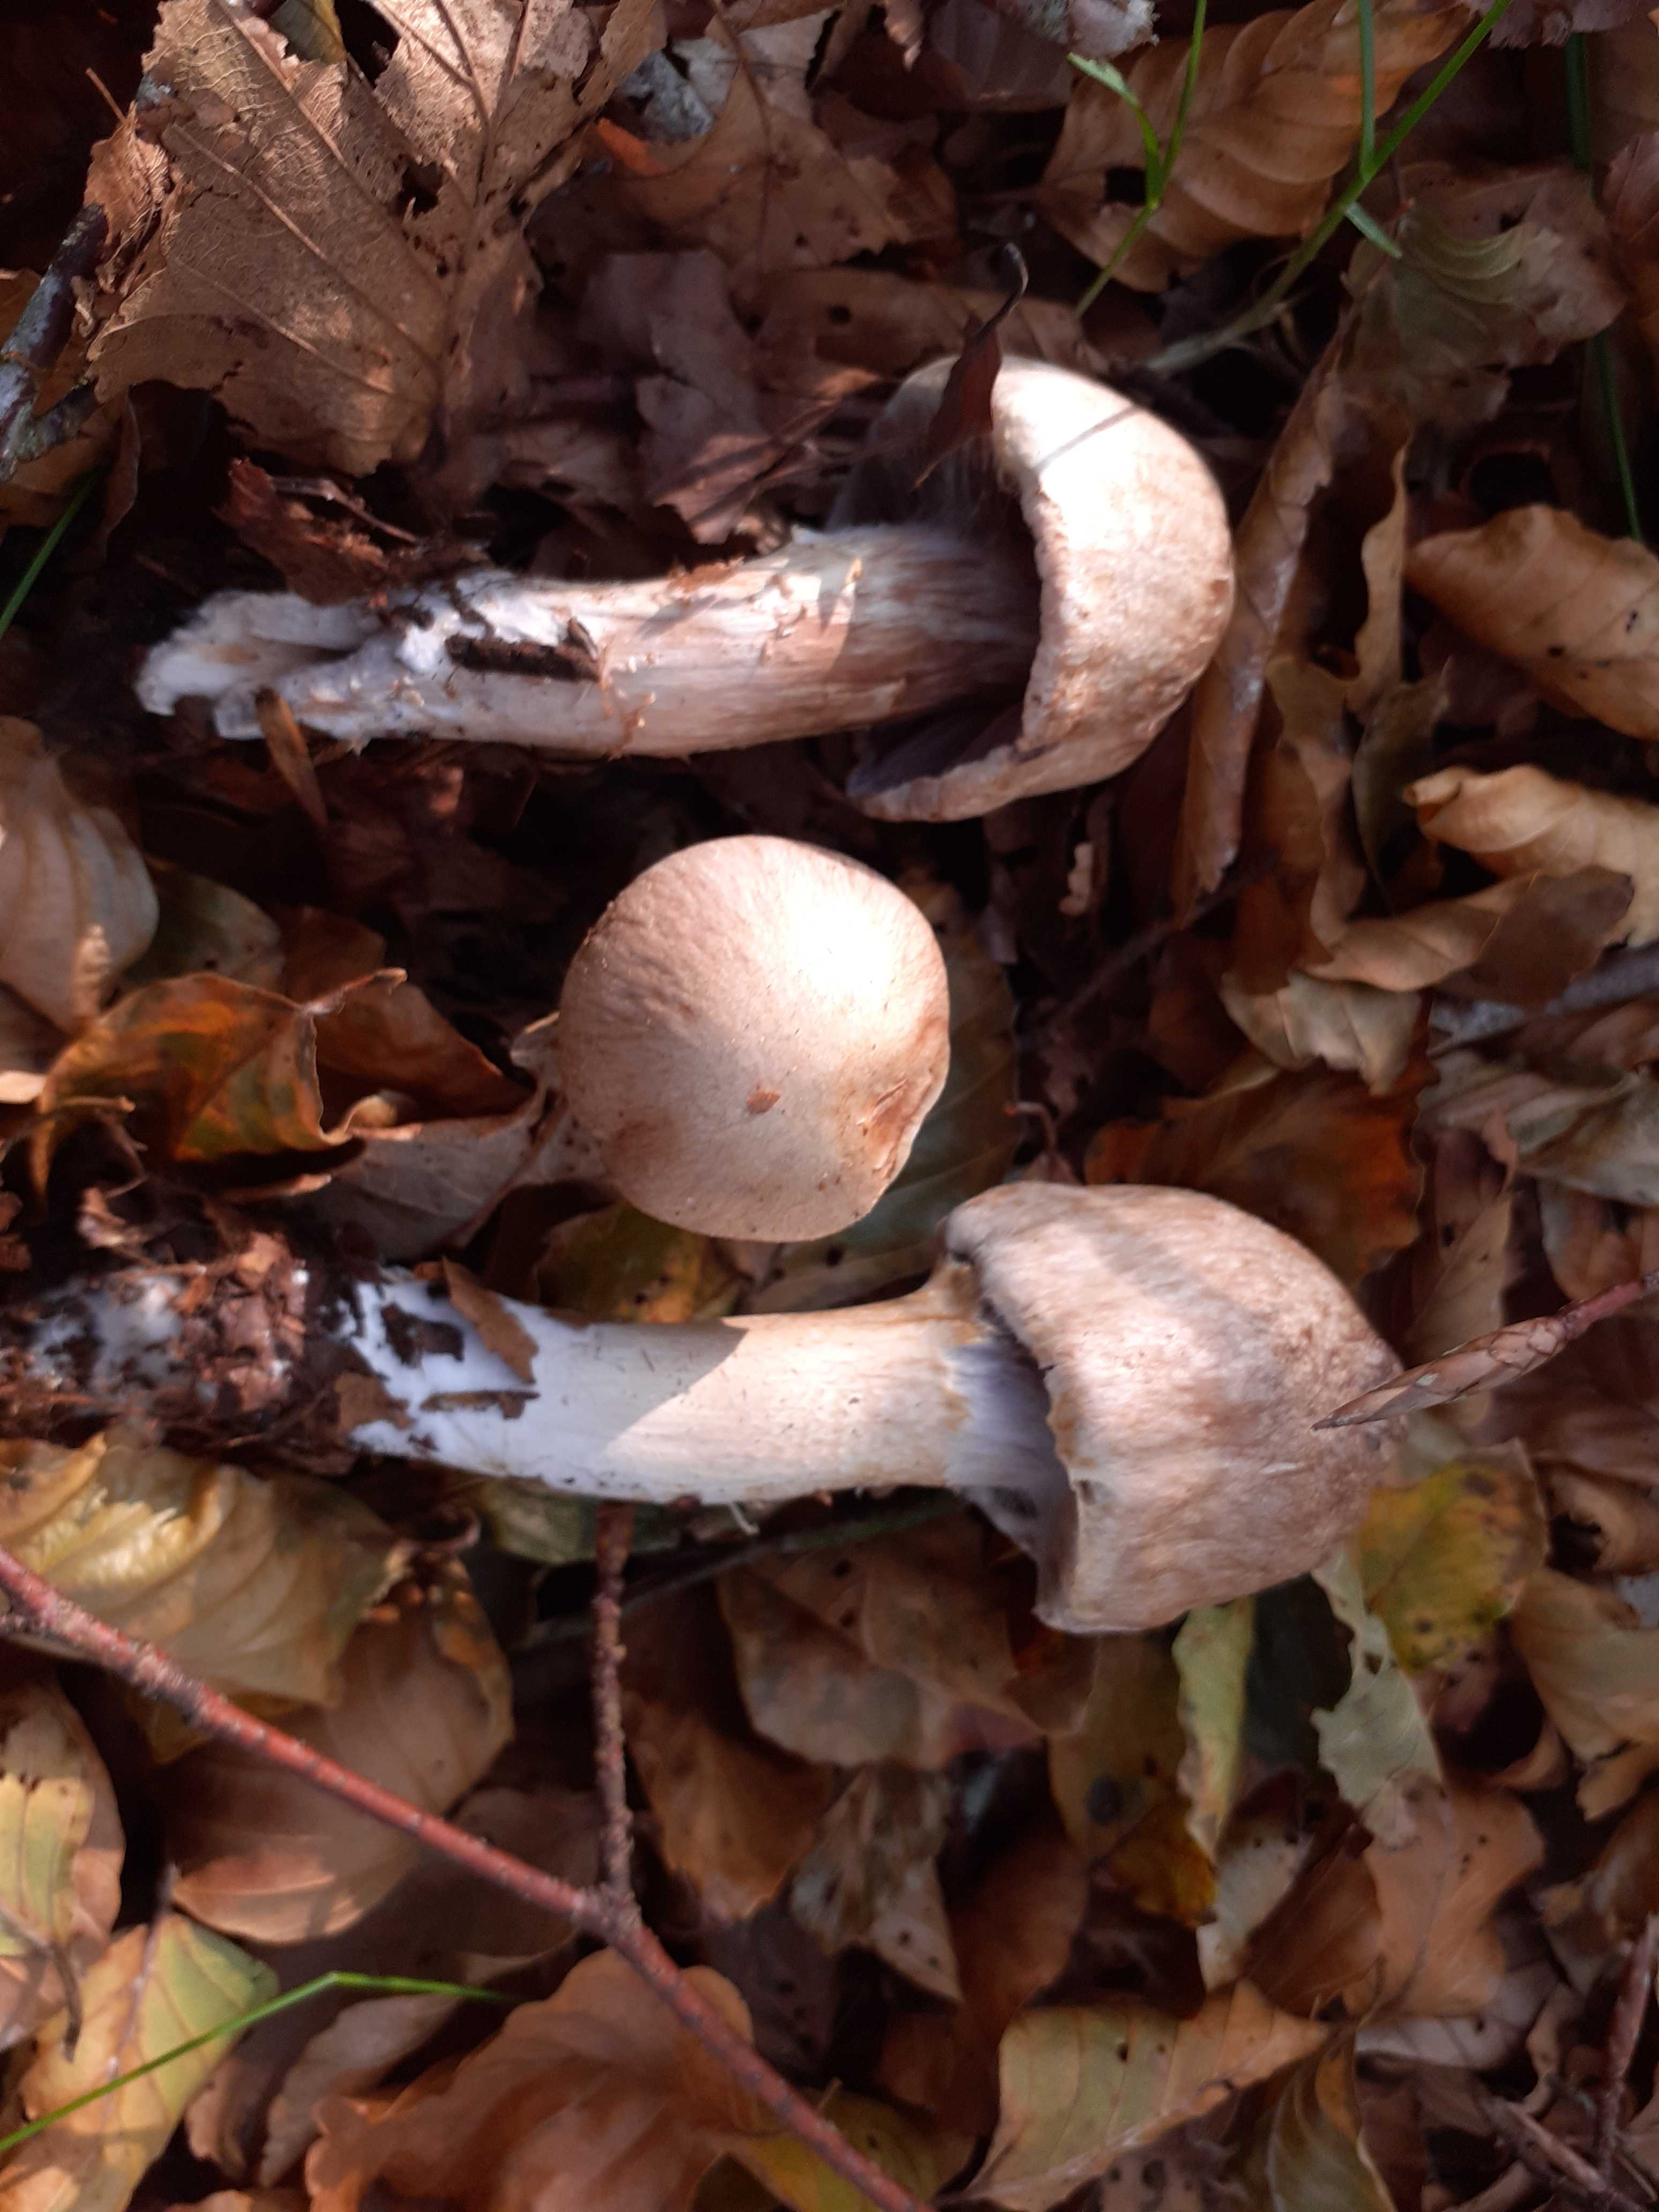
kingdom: Fungi
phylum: Basidiomycota
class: Agaricomycetes
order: Agaricales
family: Cortinariaceae
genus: Cortinarius
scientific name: Cortinarius torvus
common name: champignonagtig slørhat
